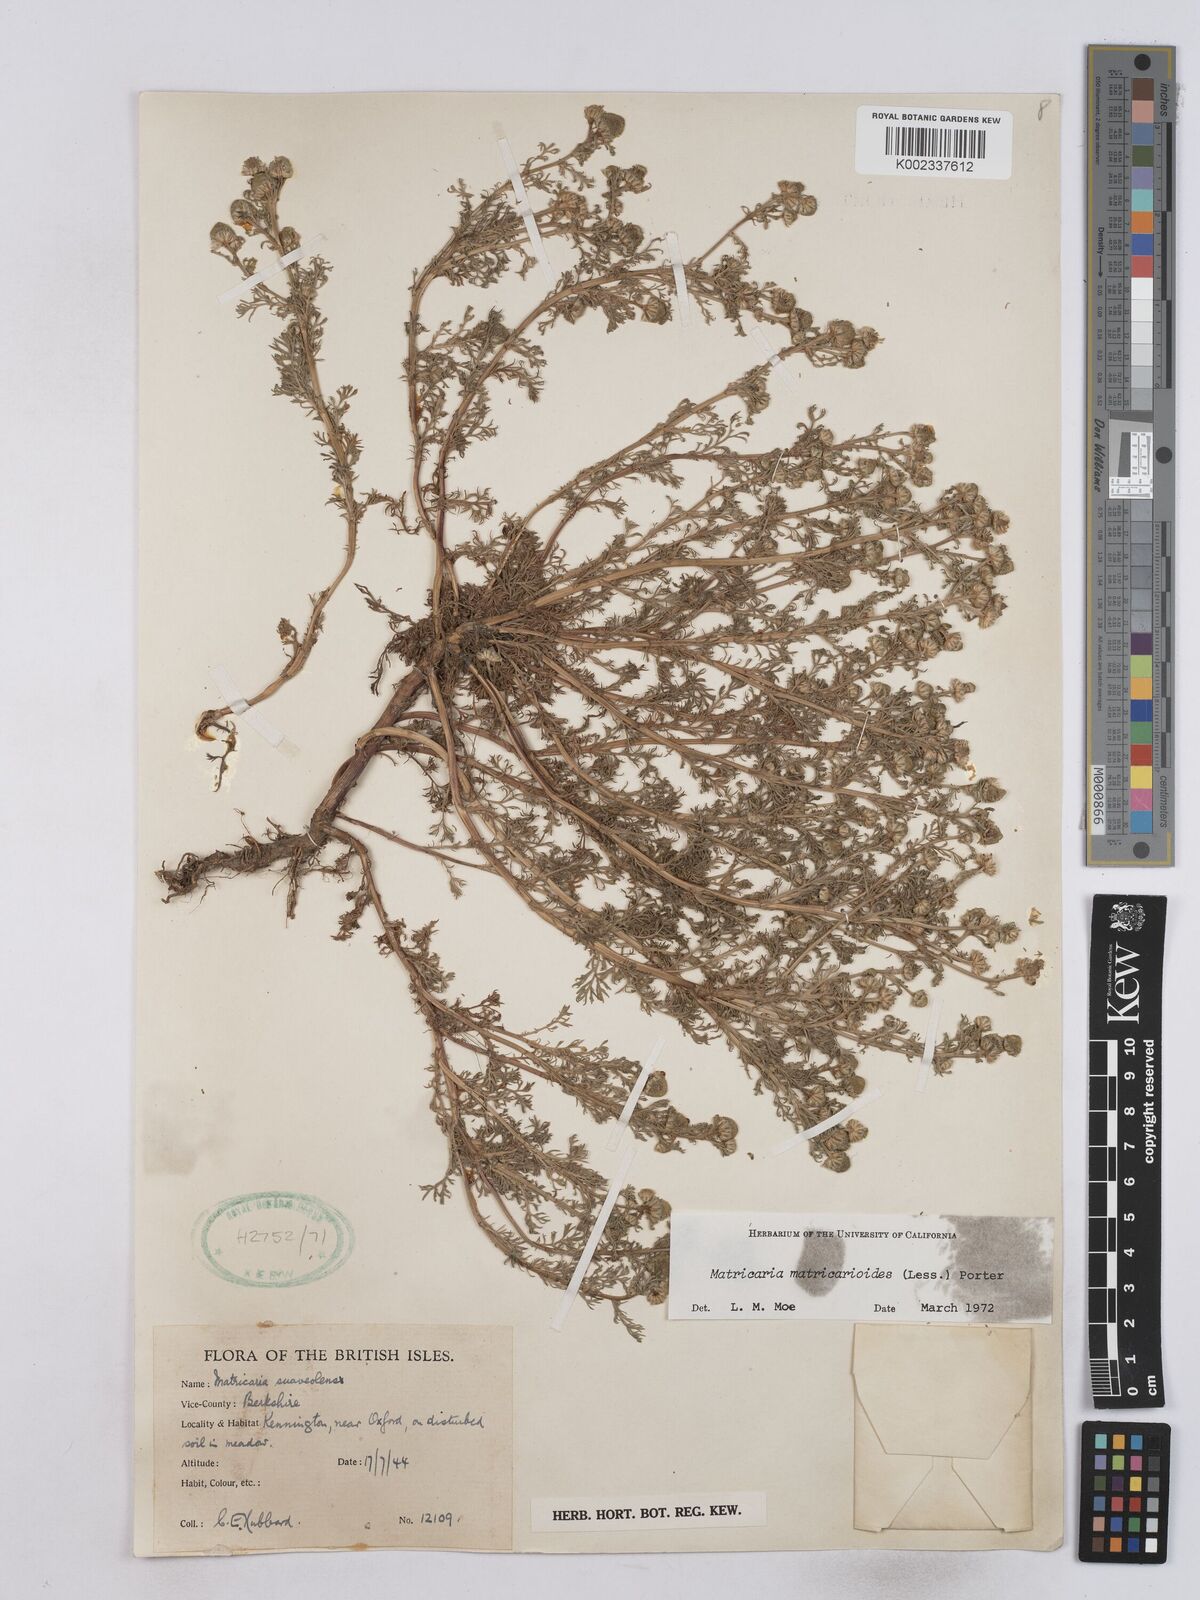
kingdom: Plantae
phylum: Tracheophyta
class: Magnoliopsida
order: Asterales
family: Asteraceae
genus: Matricaria
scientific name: Matricaria discoidea
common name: Disc mayweed
